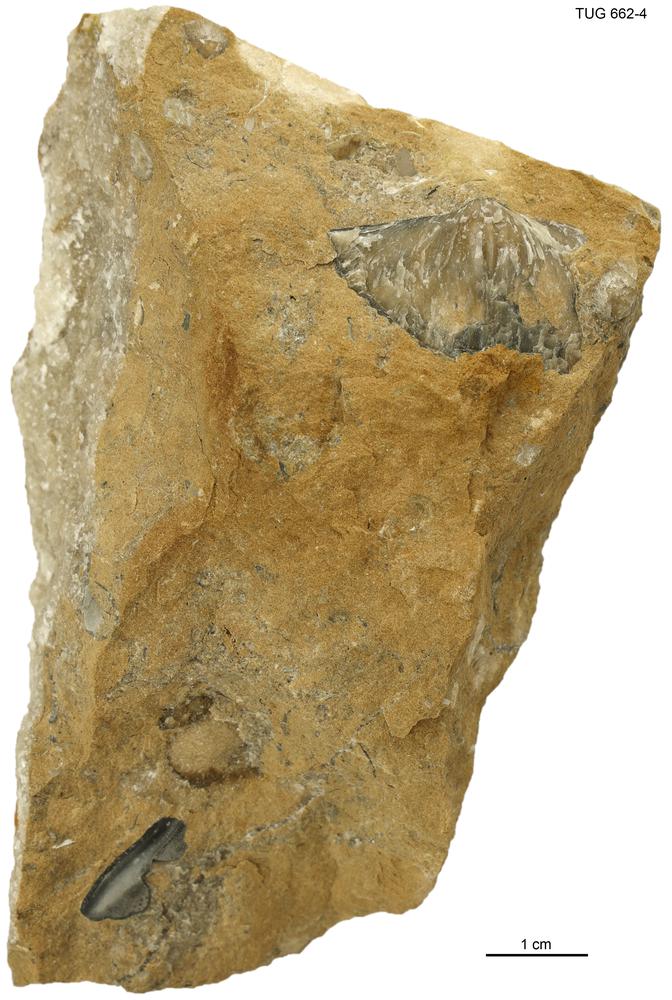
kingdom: Animalia
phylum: Brachiopoda
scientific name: Brachiopoda
